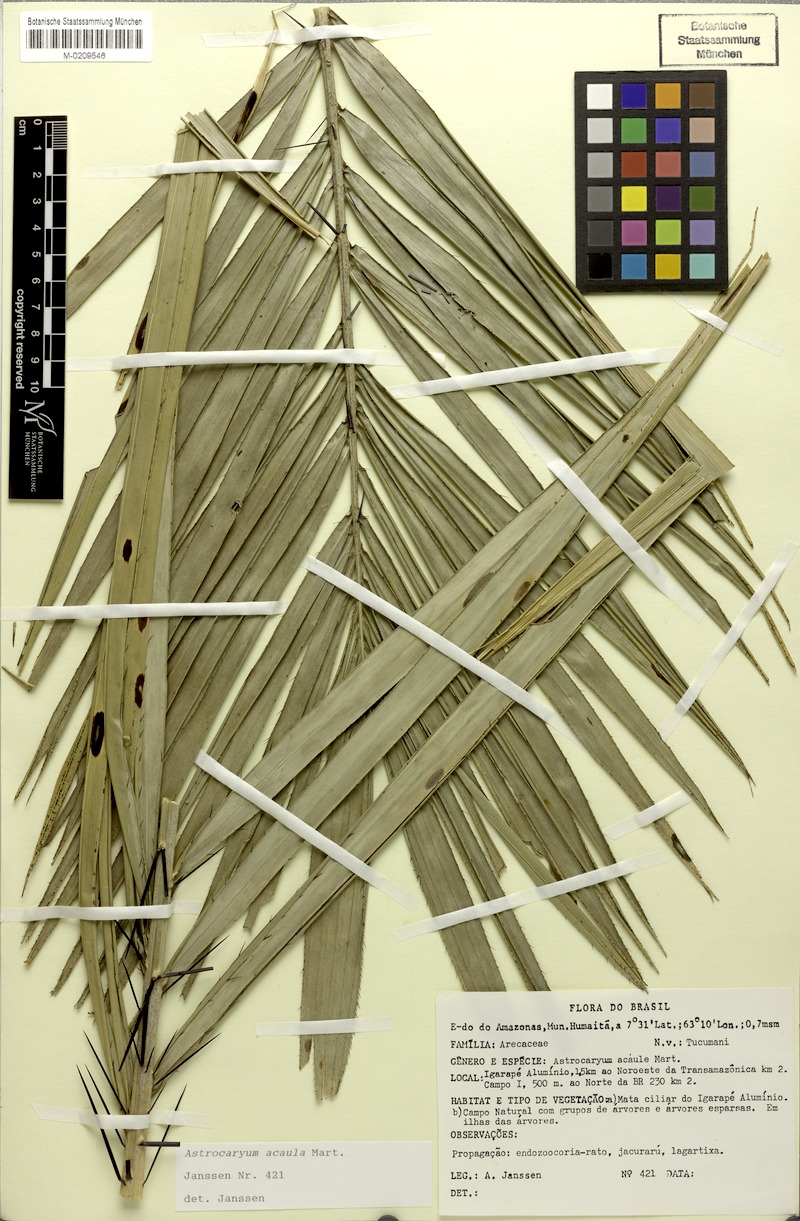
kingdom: Plantae
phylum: Tracheophyta
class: Liliopsida
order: Arecales
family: Arecaceae
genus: Astrocaryum
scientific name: Astrocaryum acaule
